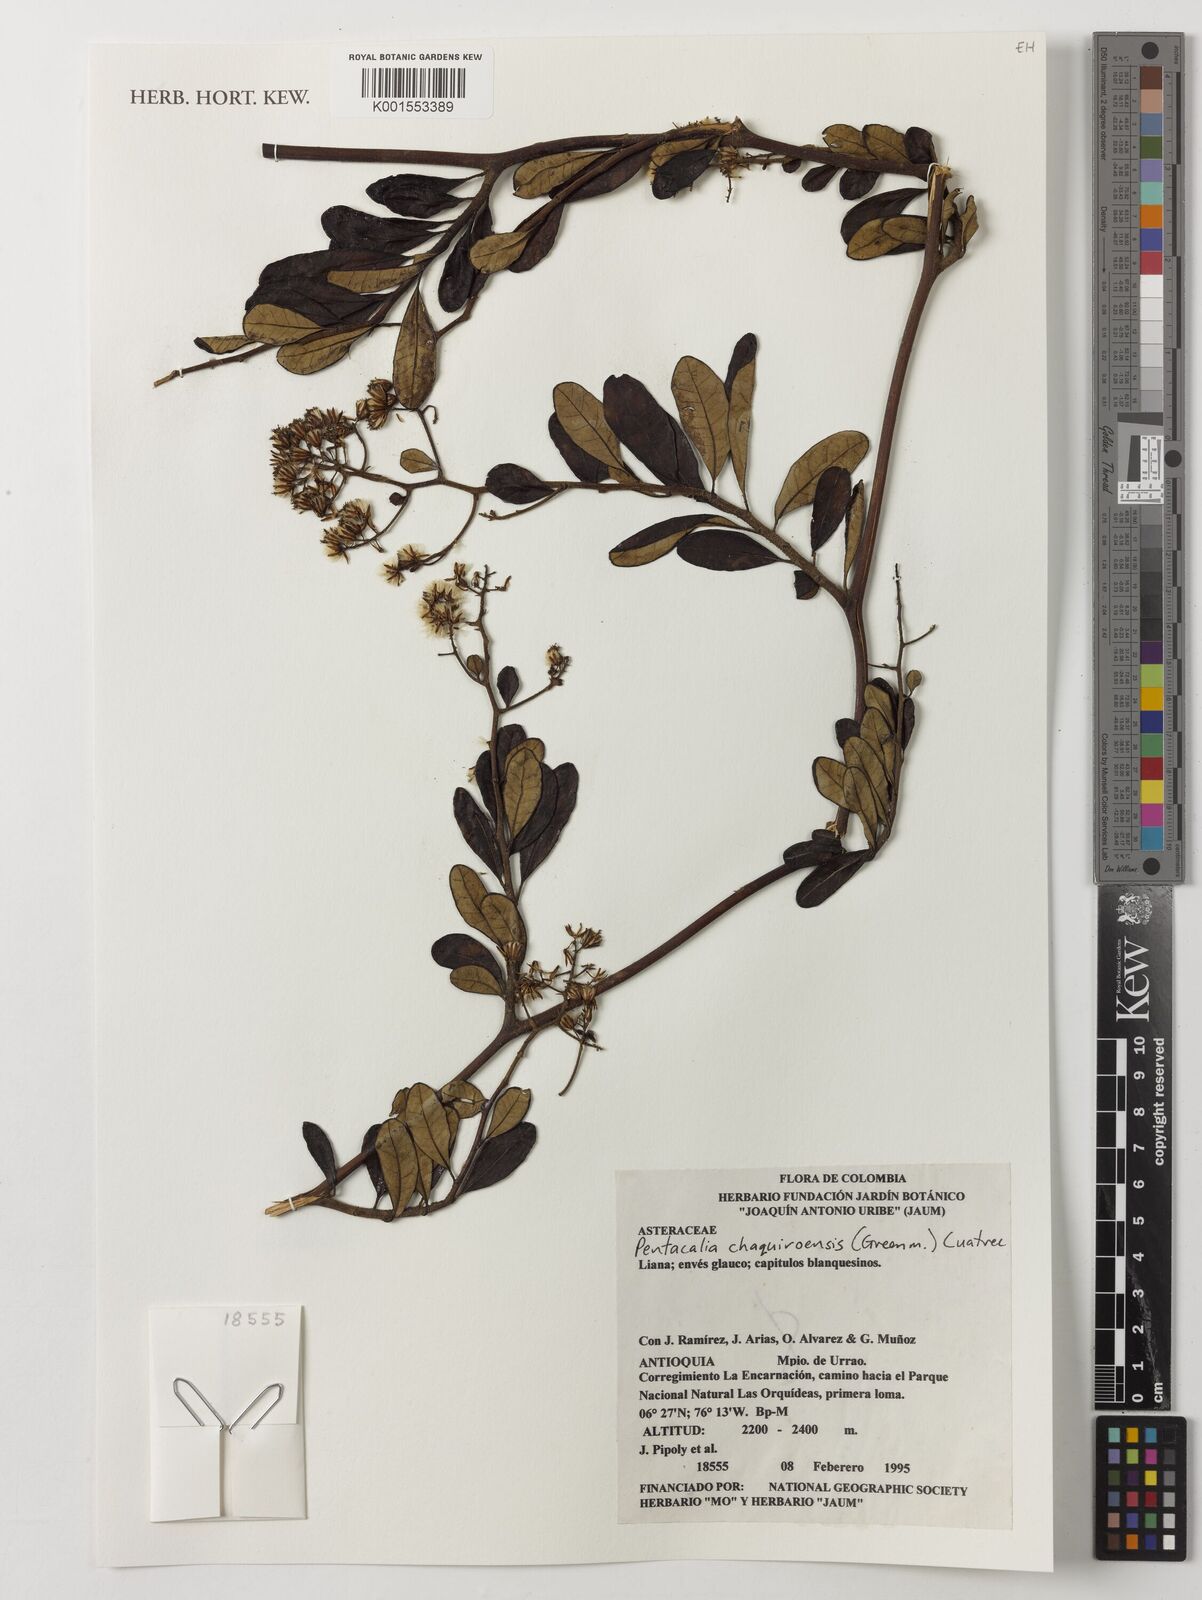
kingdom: Plantae
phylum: Tracheophyta
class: Magnoliopsida
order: Asterales
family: Asteraceae
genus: Pentacalia
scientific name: Pentacalia chaquiroensis
